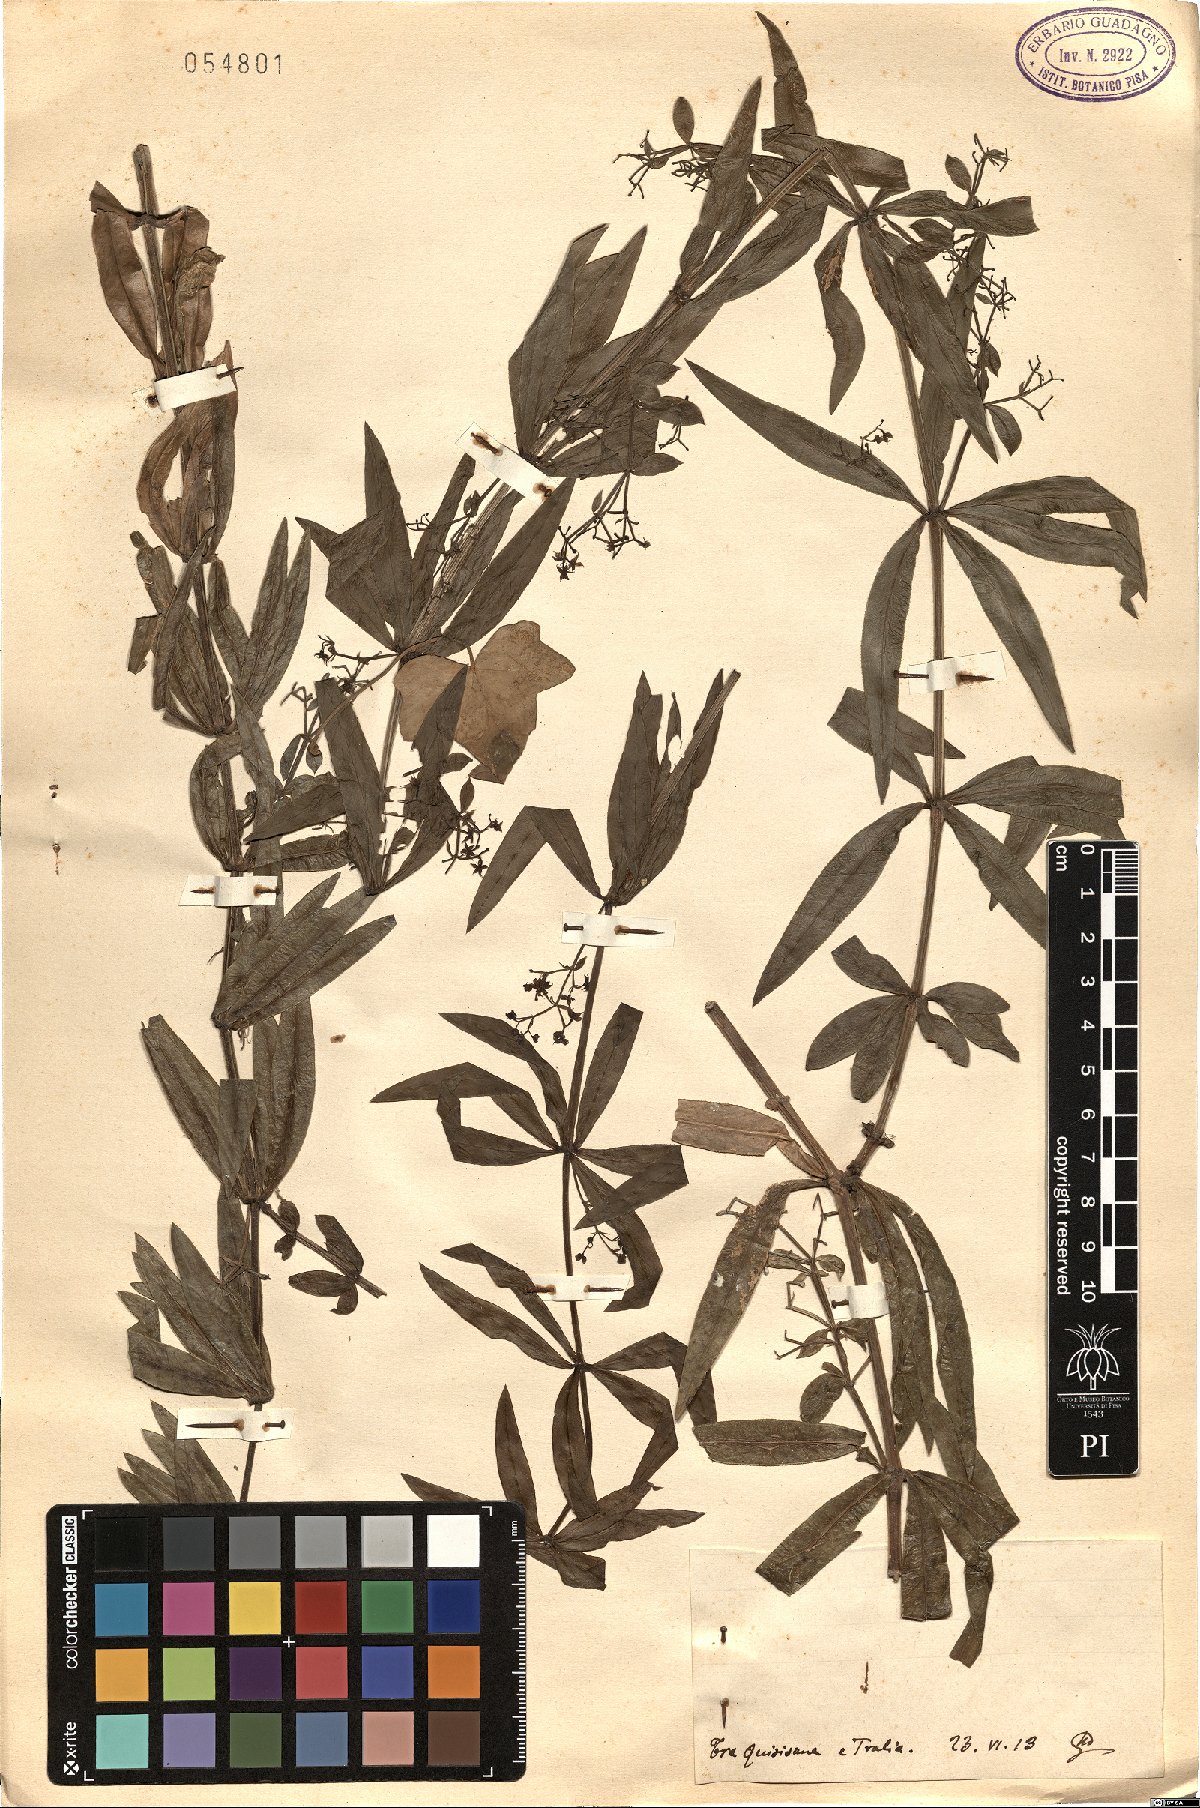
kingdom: Plantae
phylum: Tracheophyta
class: Magnoliopsida
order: Gentianales
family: Rubiaceae
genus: Rubia
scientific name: Rubia
